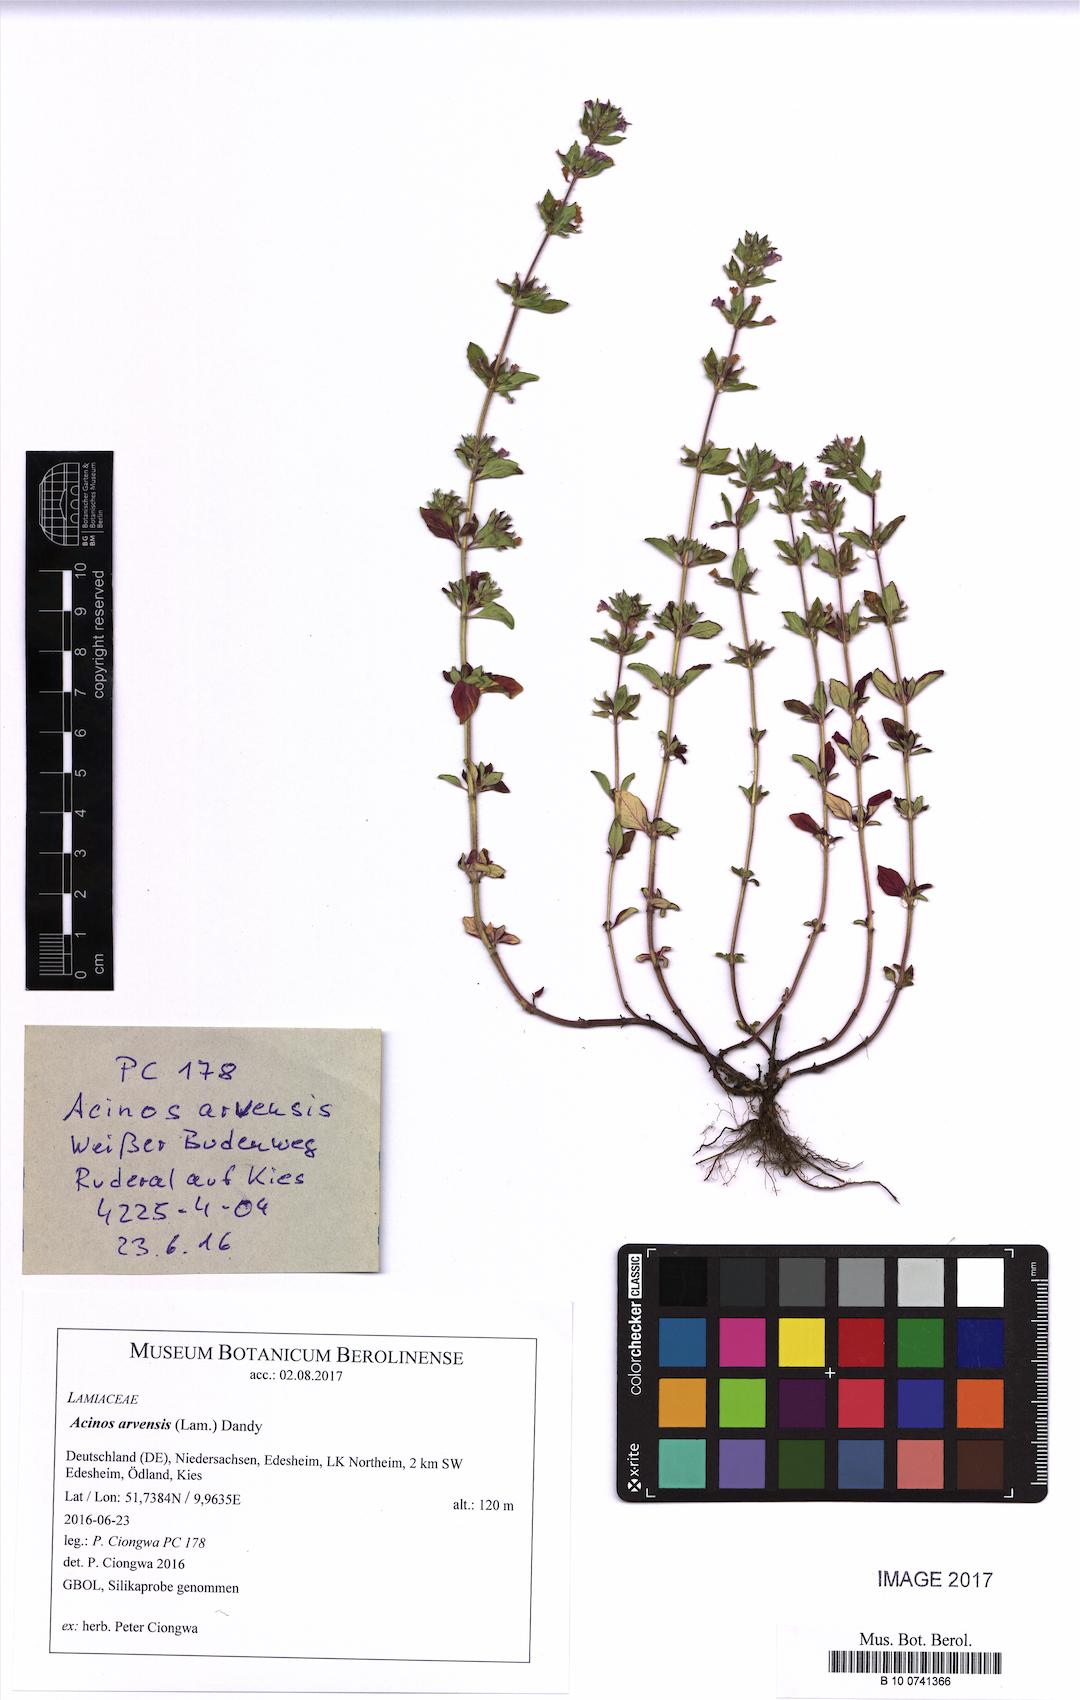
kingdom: Plantae
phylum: Tracheophyta
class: Magnoliopsida
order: Lamiales
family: Lamiaceae
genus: Clinopodium
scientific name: Clinopodium acinos
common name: Basil thyme
